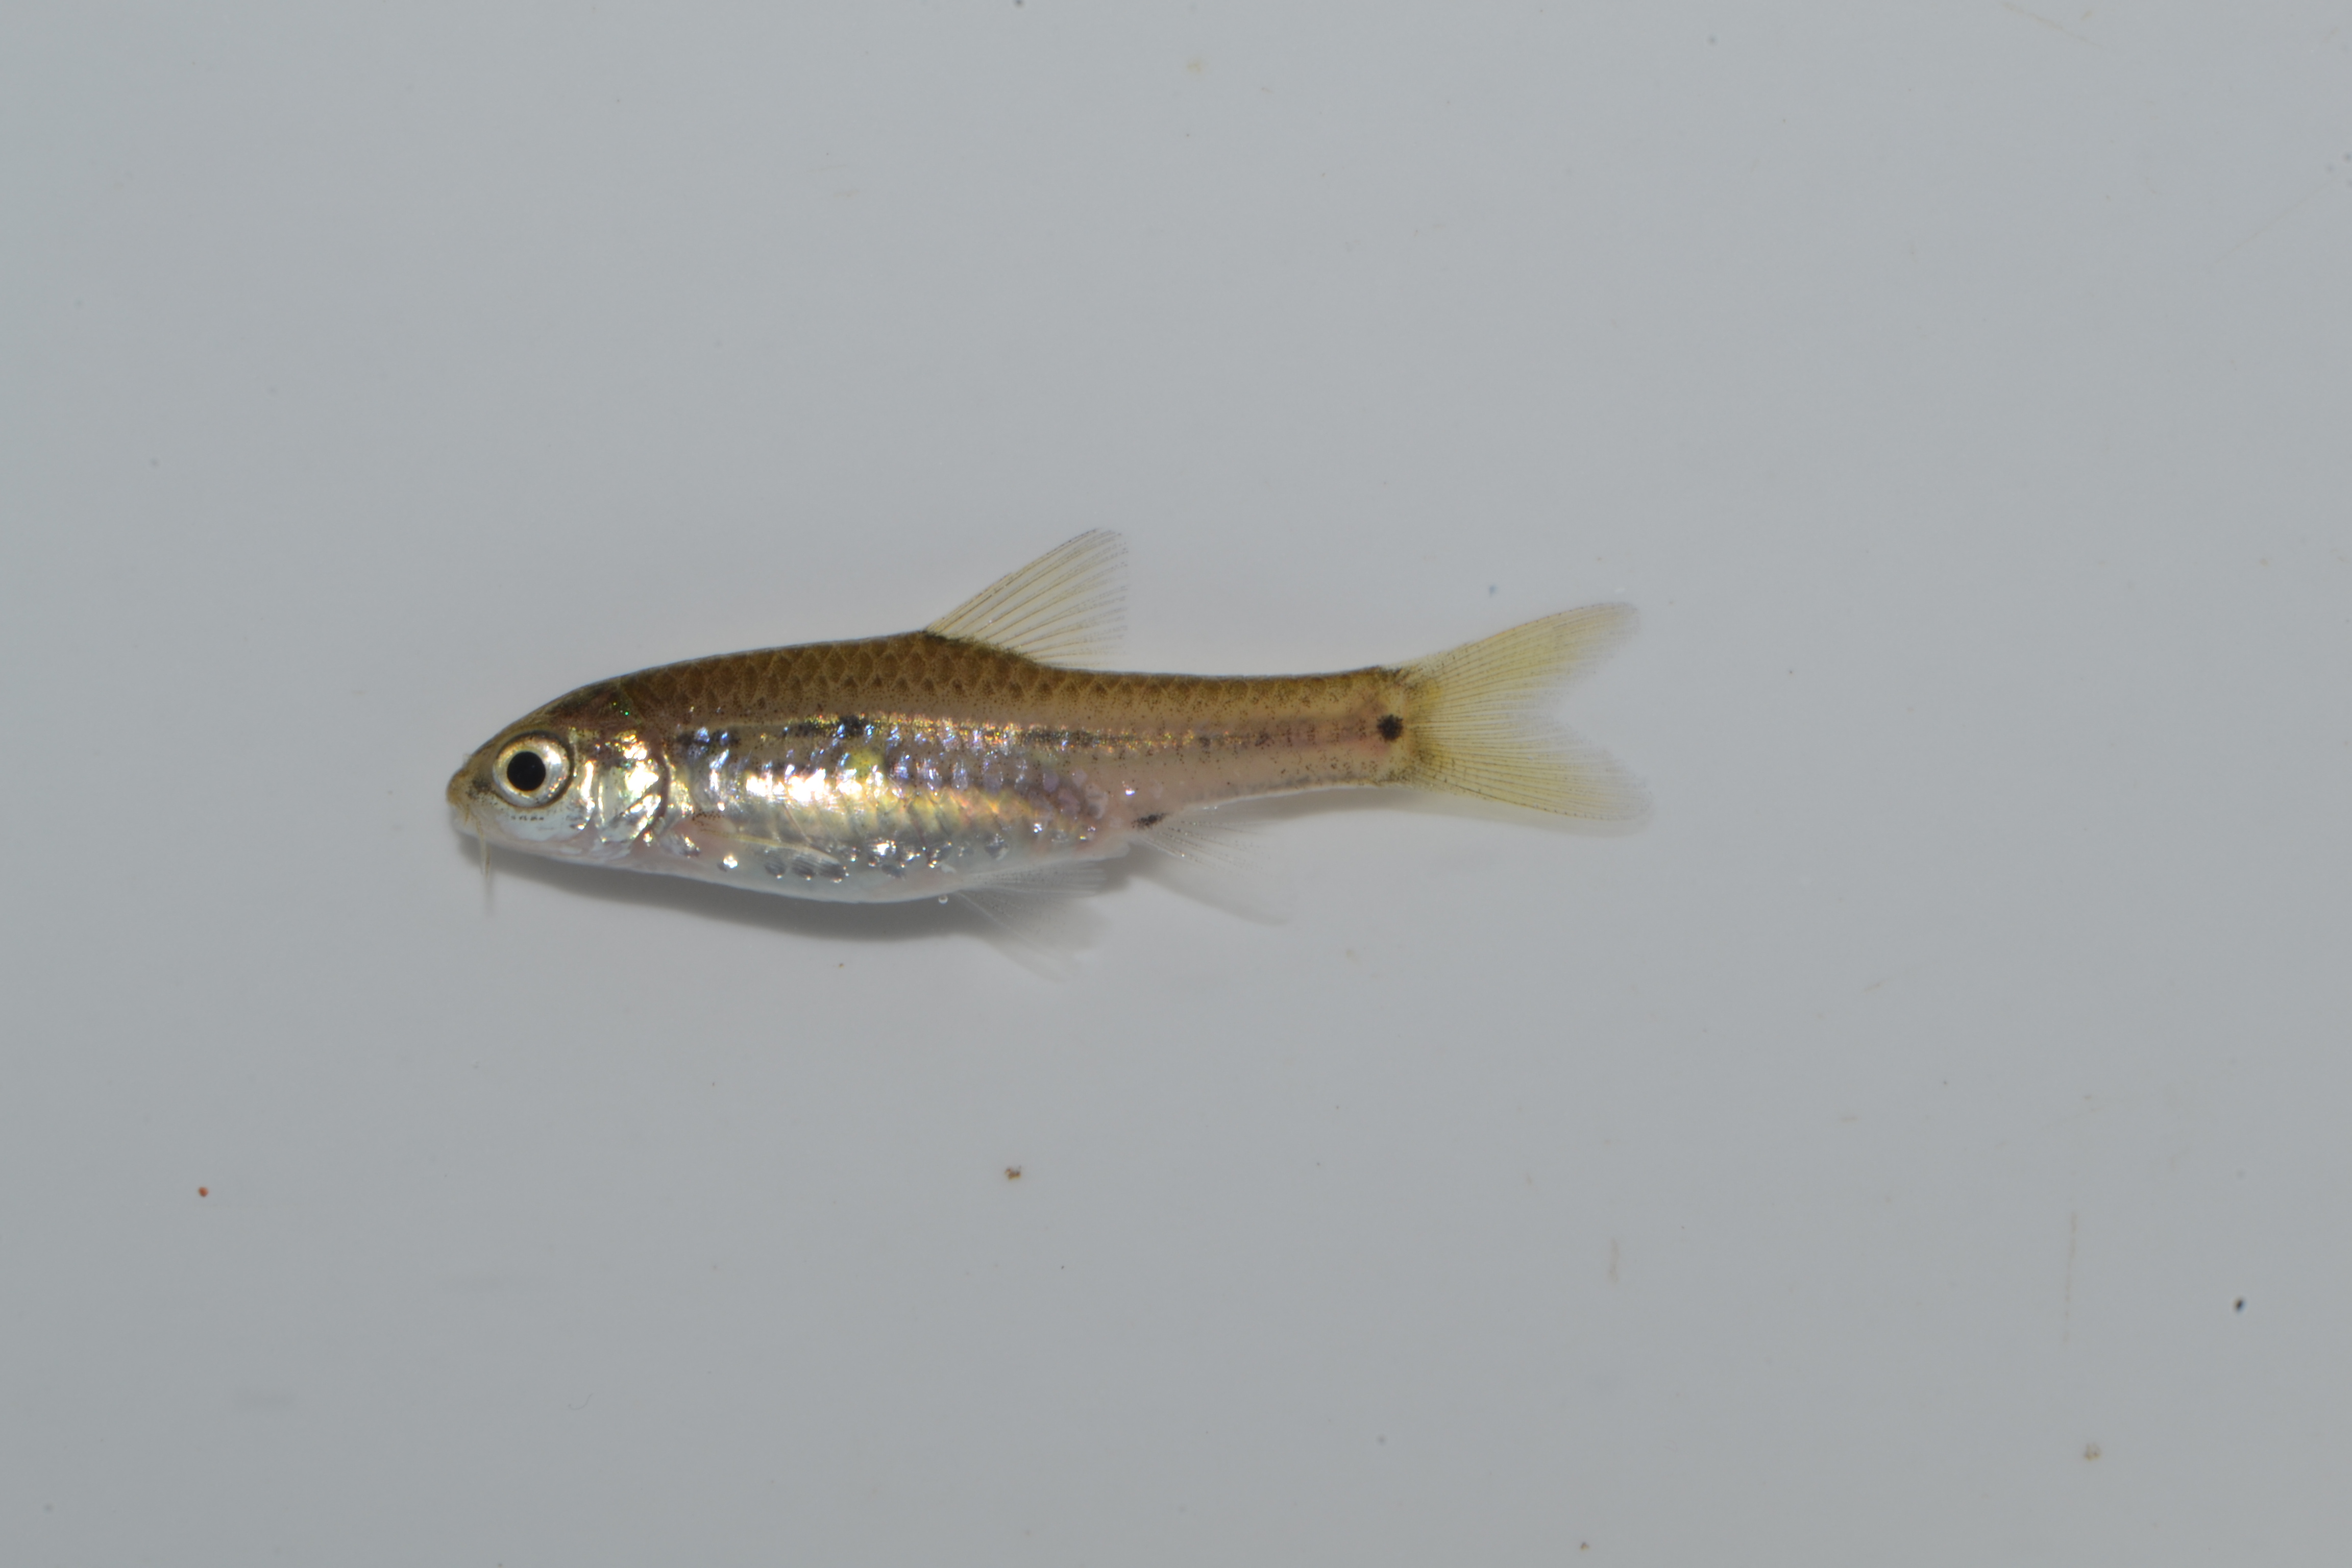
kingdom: Animalia
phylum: Chordata
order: Cypriniformes
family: Cyprinidae
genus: Enteromius
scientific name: Enteromius viviparus
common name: Bowstripe barb
